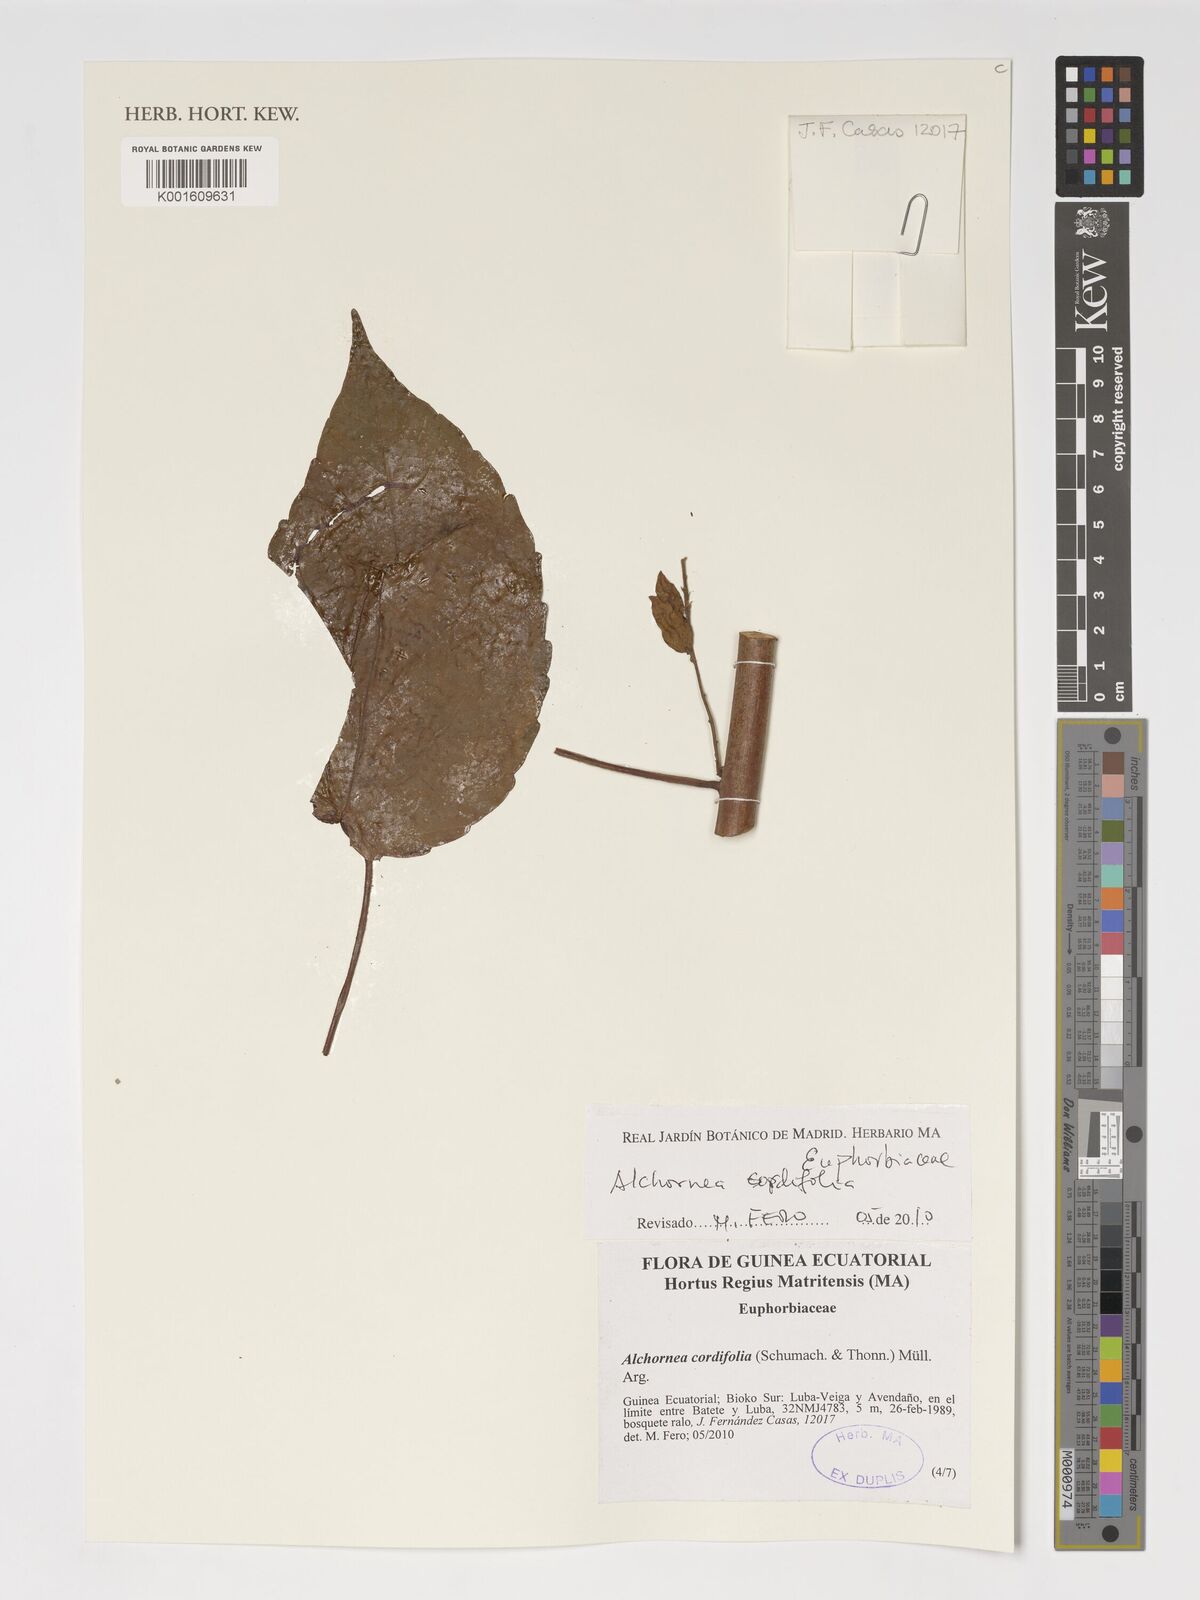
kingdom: Plantae
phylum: Tracheophyta
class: Magnoliopsida
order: Malpighiales
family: Euphorbiaceae
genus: Alchornea
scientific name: Alchornea cordifolia
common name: Christmasbush
